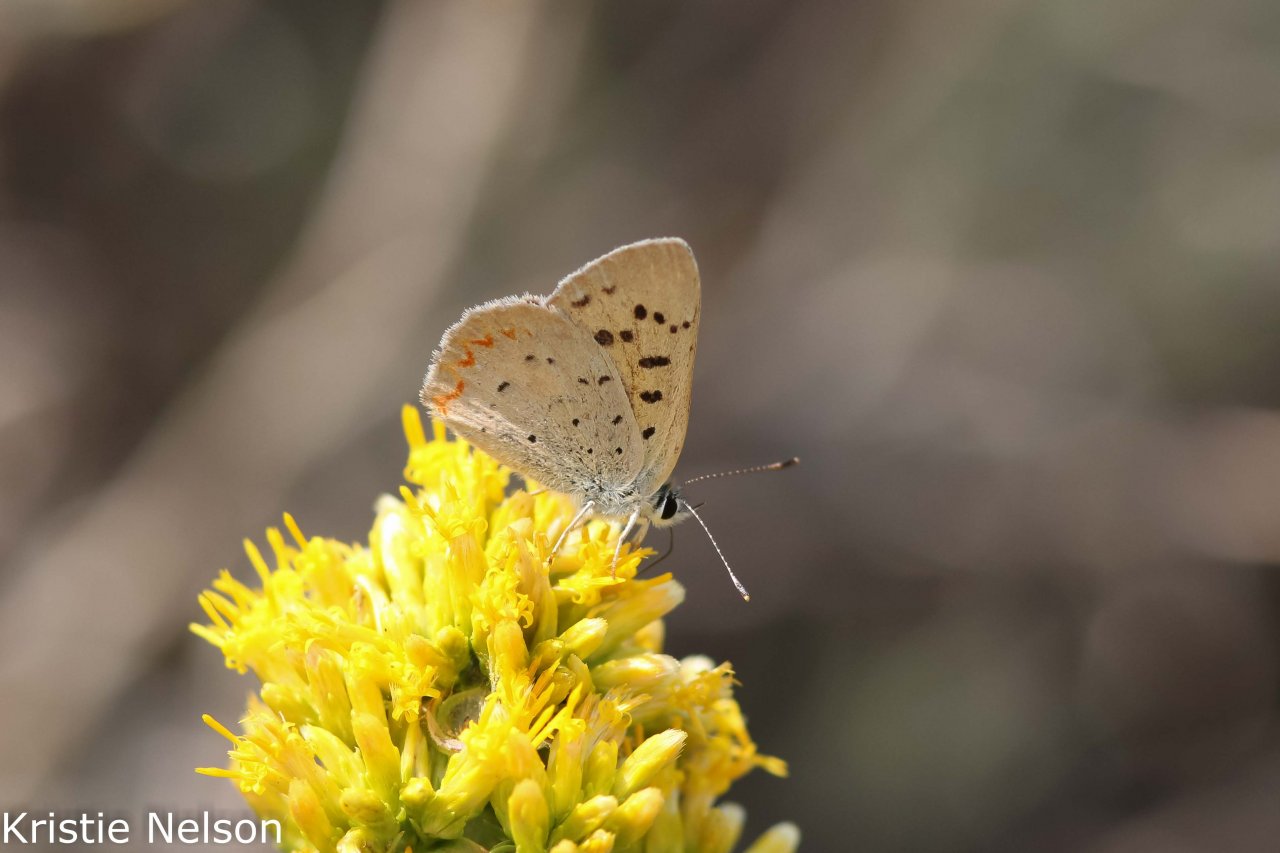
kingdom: Animalia
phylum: Arthropoda
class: Insecta
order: Lepidoptera
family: Sesiidae
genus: Sesia
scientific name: Sesia Lycaena helloides
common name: Purplish Copper
